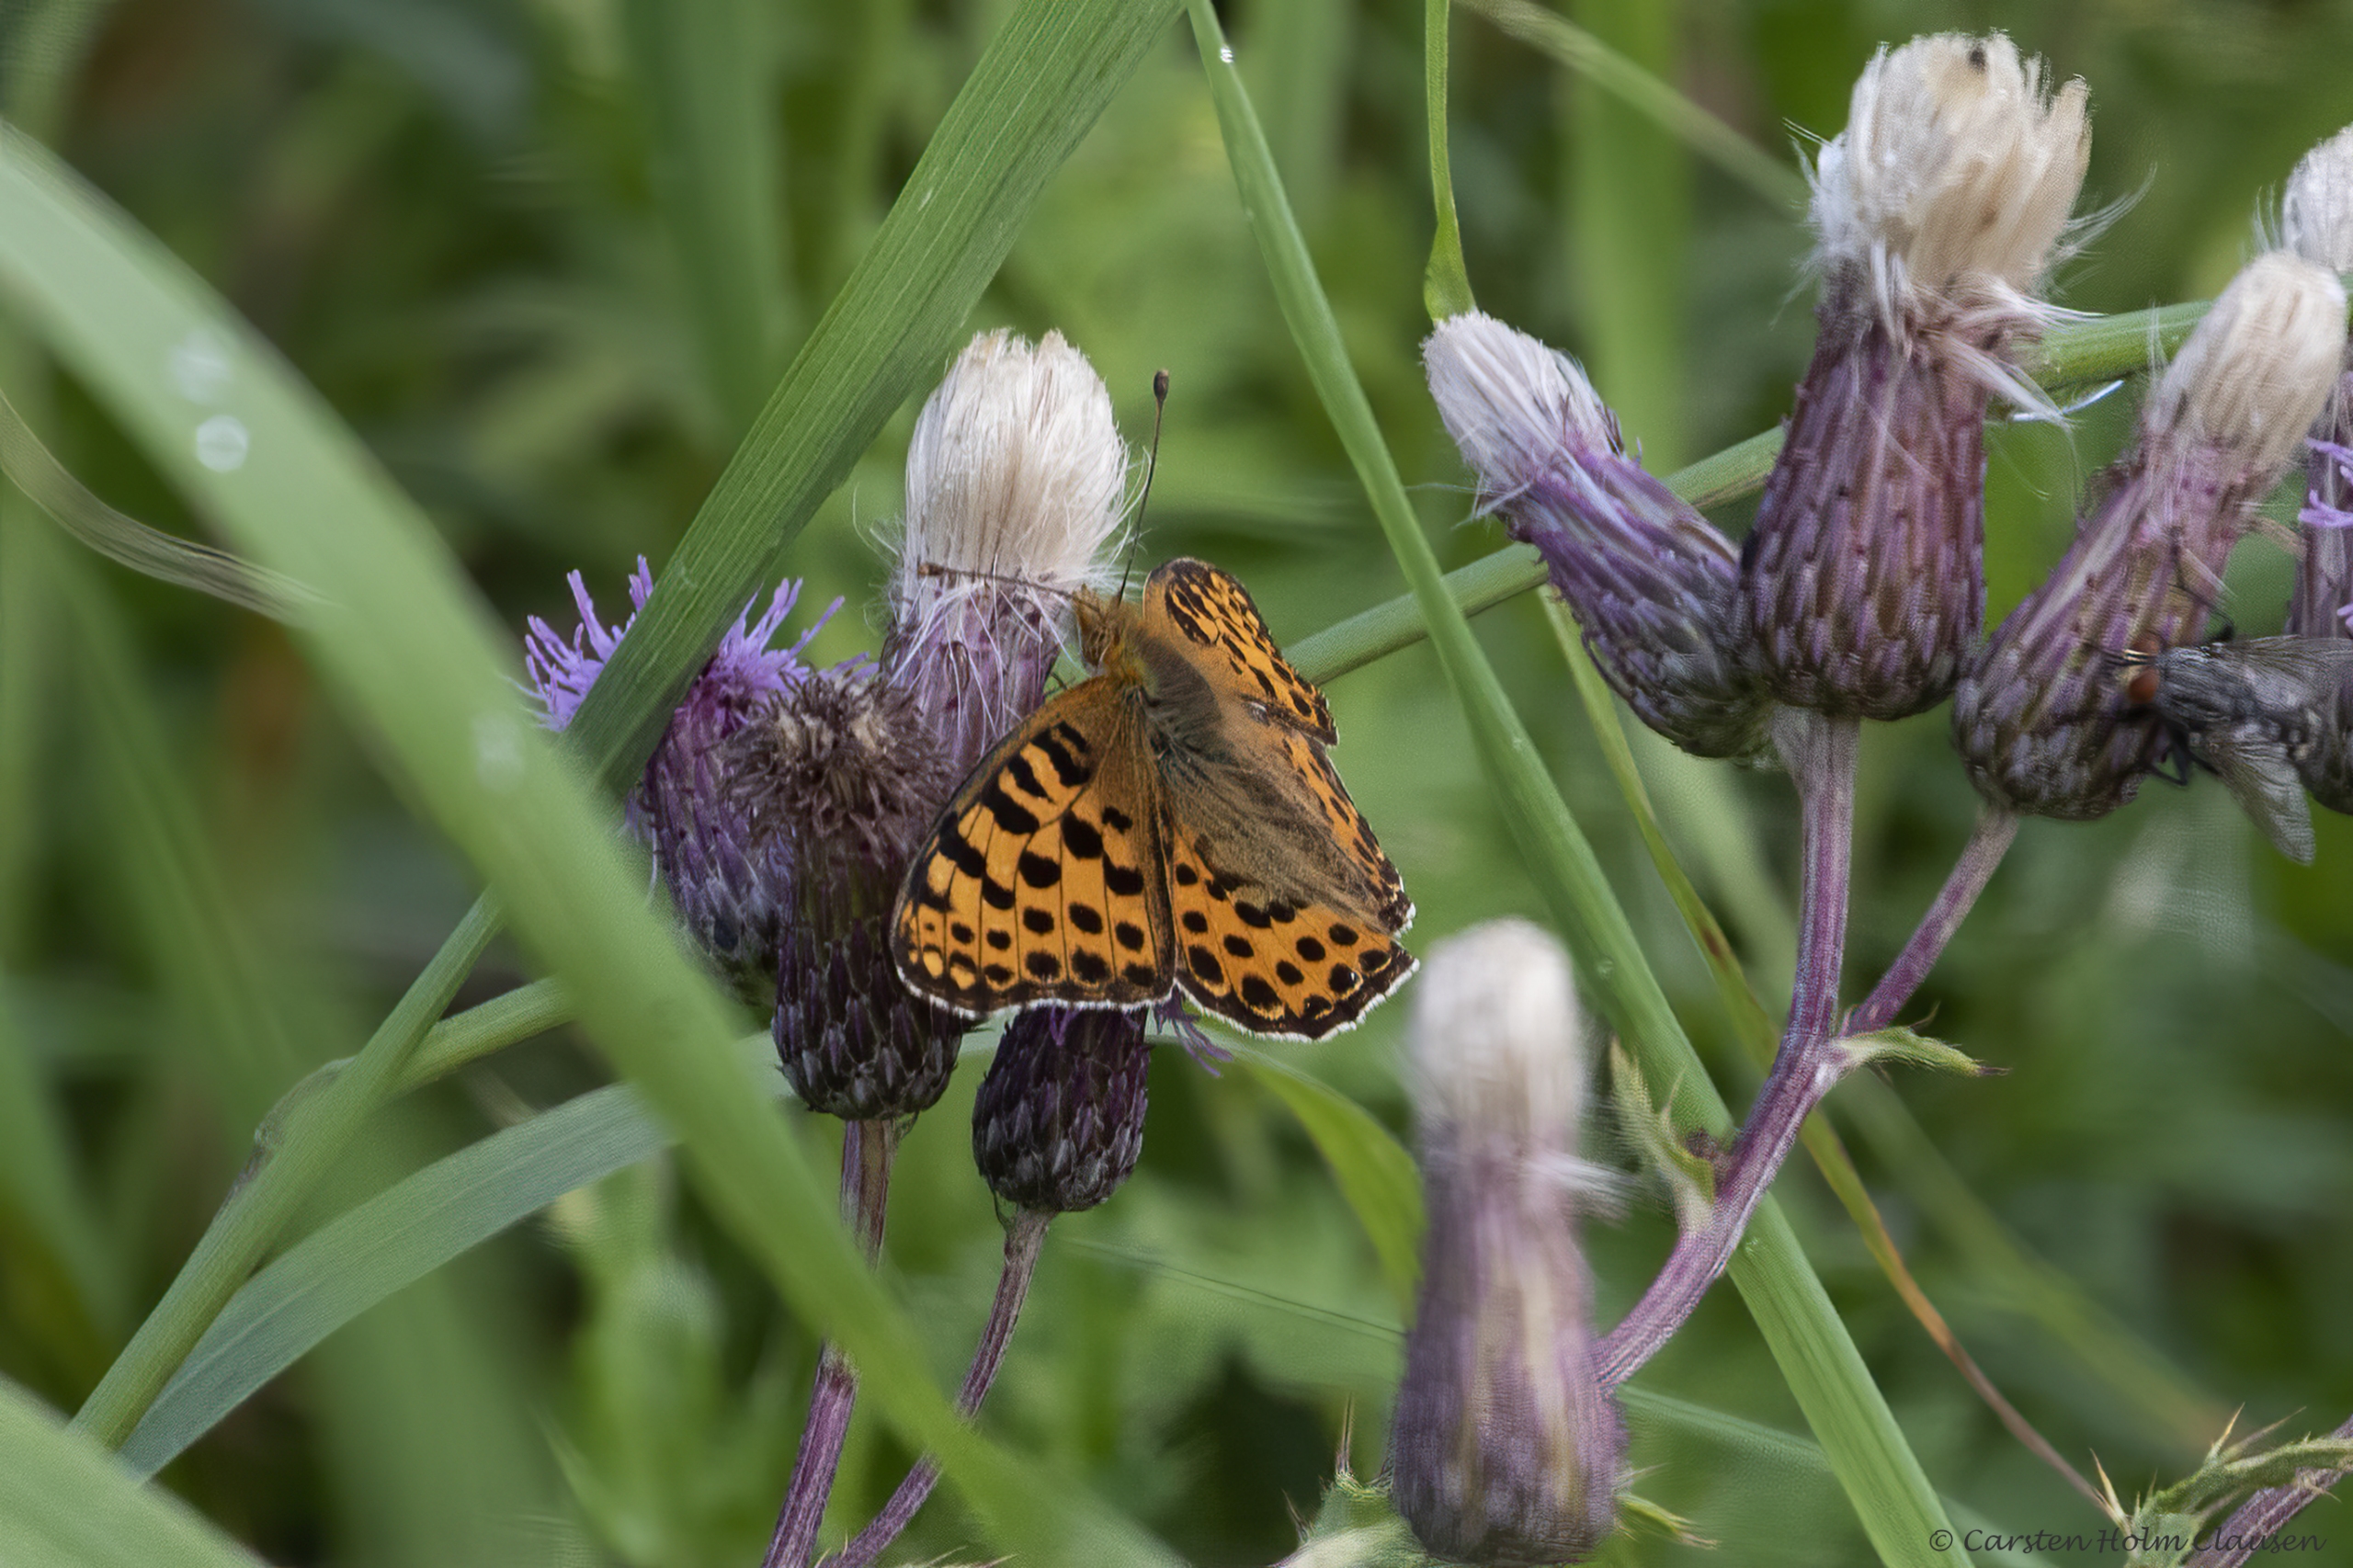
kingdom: Animalia
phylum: Arthropoda
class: Insecta
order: Lepidoptera
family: Nymphalidae
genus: Issoria
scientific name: Issoria lathonia
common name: Storplettet perlemorsommerfugl
